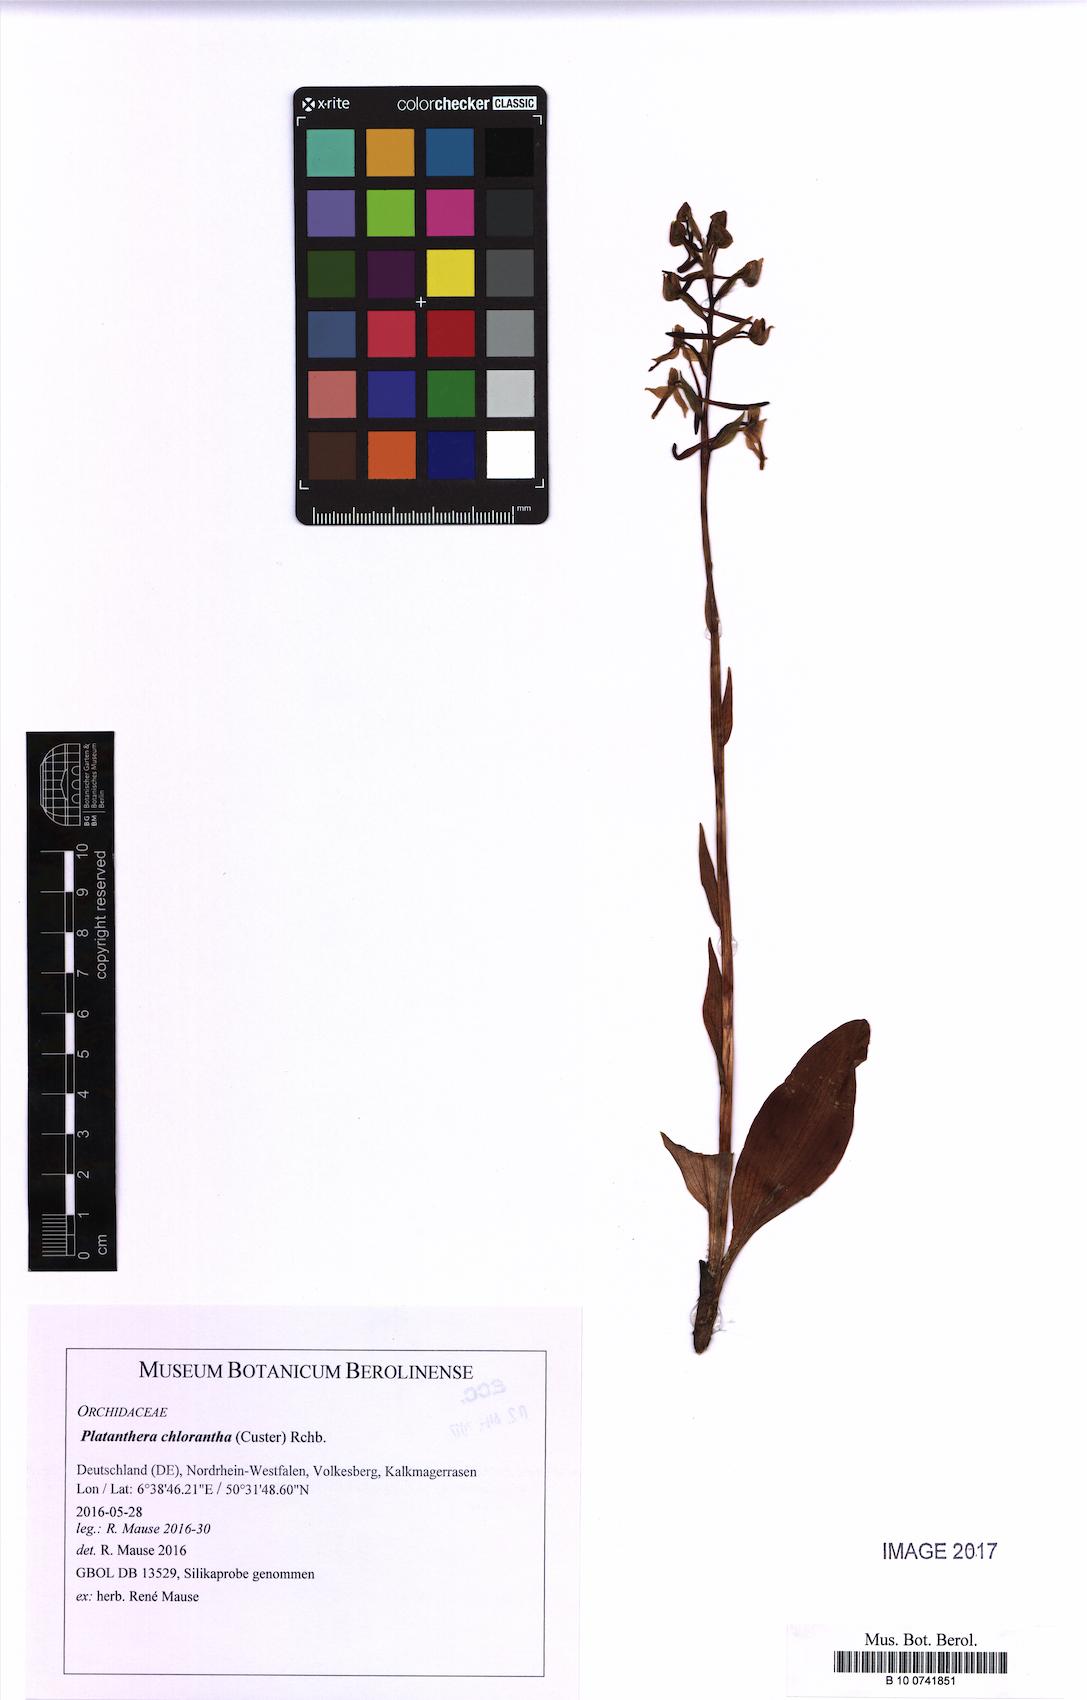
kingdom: Plantae
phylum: Tracheophyta
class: Liliopsida
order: Asparagales
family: Orchidaceae
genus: Platanthera
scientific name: Platanthera chlorantha
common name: Greater butterfly-orchid
